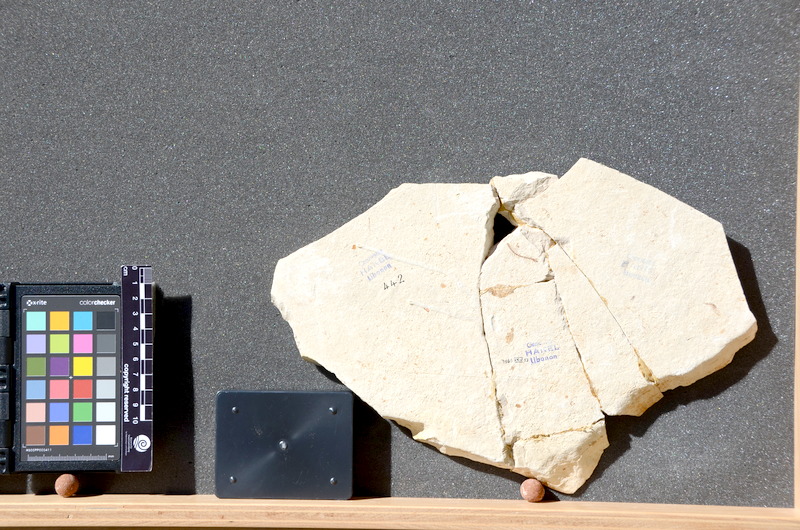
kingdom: Animalia
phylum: Chordata
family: Pycnodontes
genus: Palaeobalistum
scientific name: Palaeobalistum goedelii
